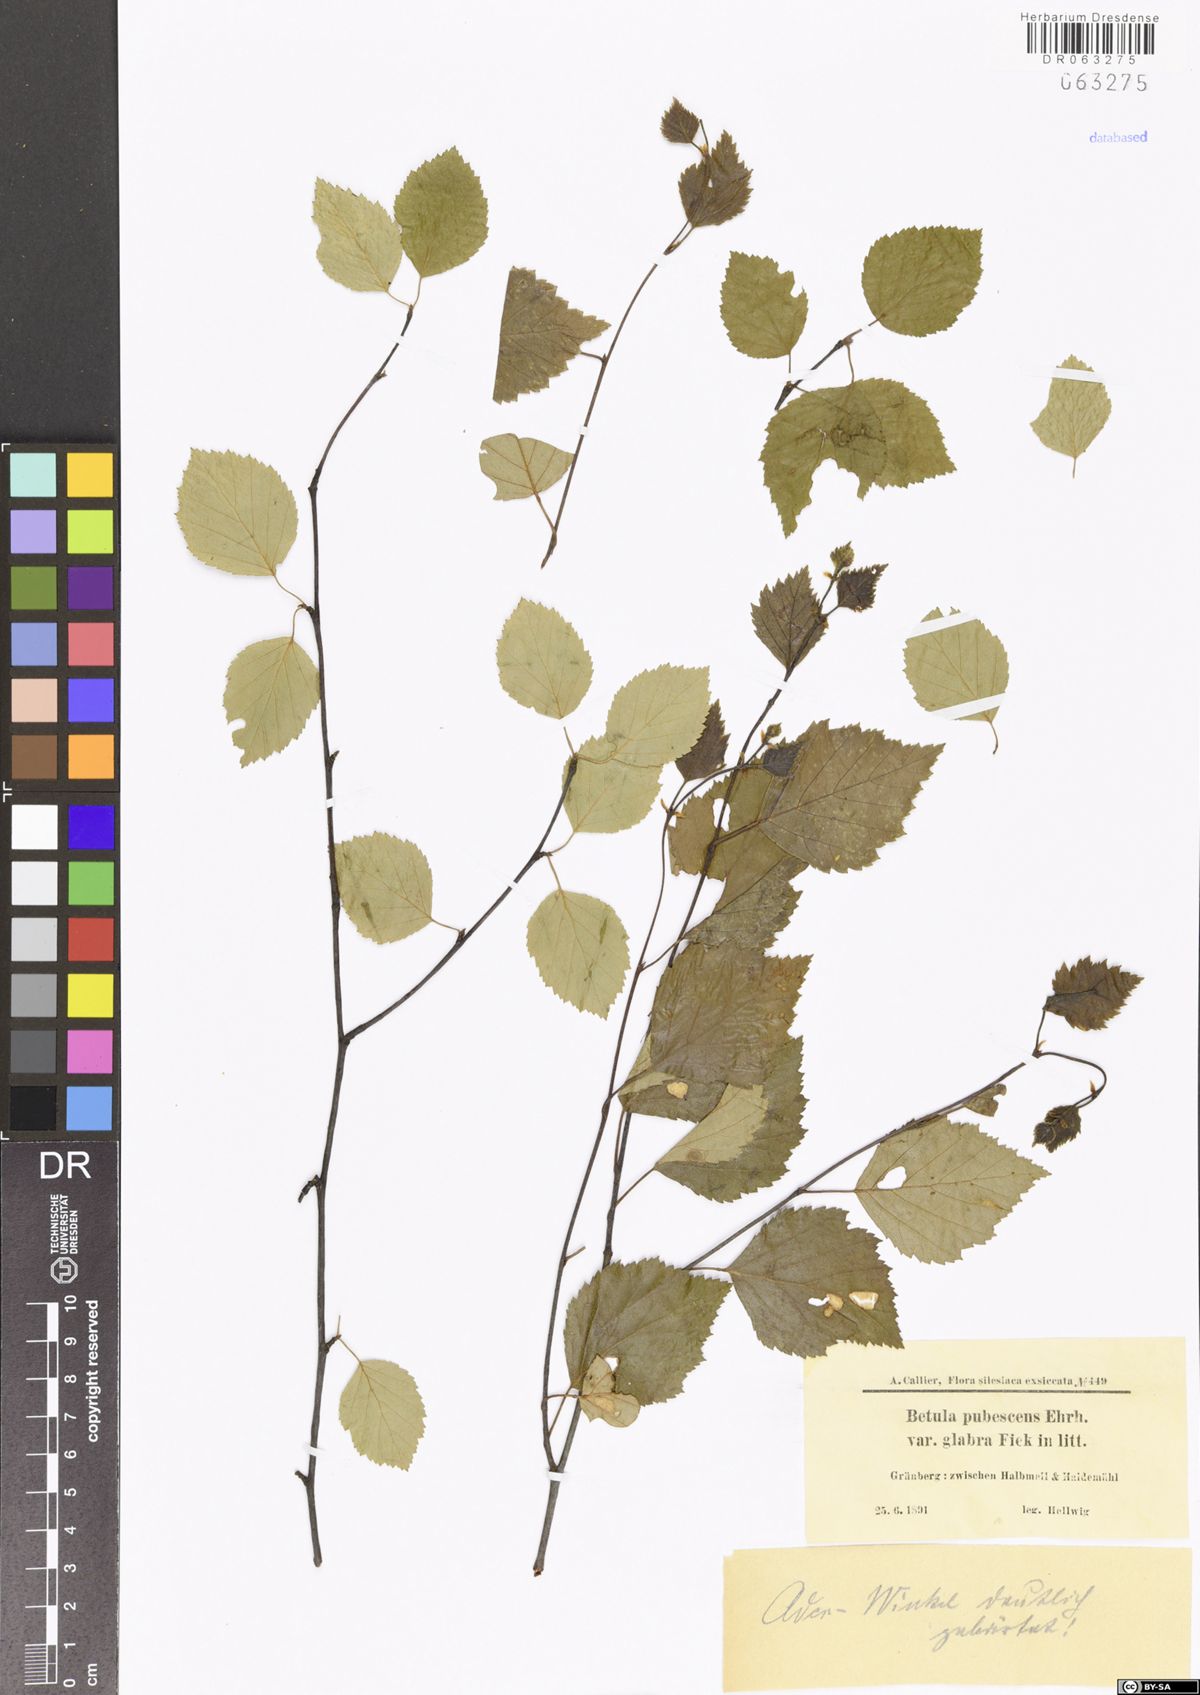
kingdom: Plantae
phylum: Tracheophyta
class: Magnoliopsida
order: Fagales
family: Betulaceae
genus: Betula
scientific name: Betula pubescens
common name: Downy birch
